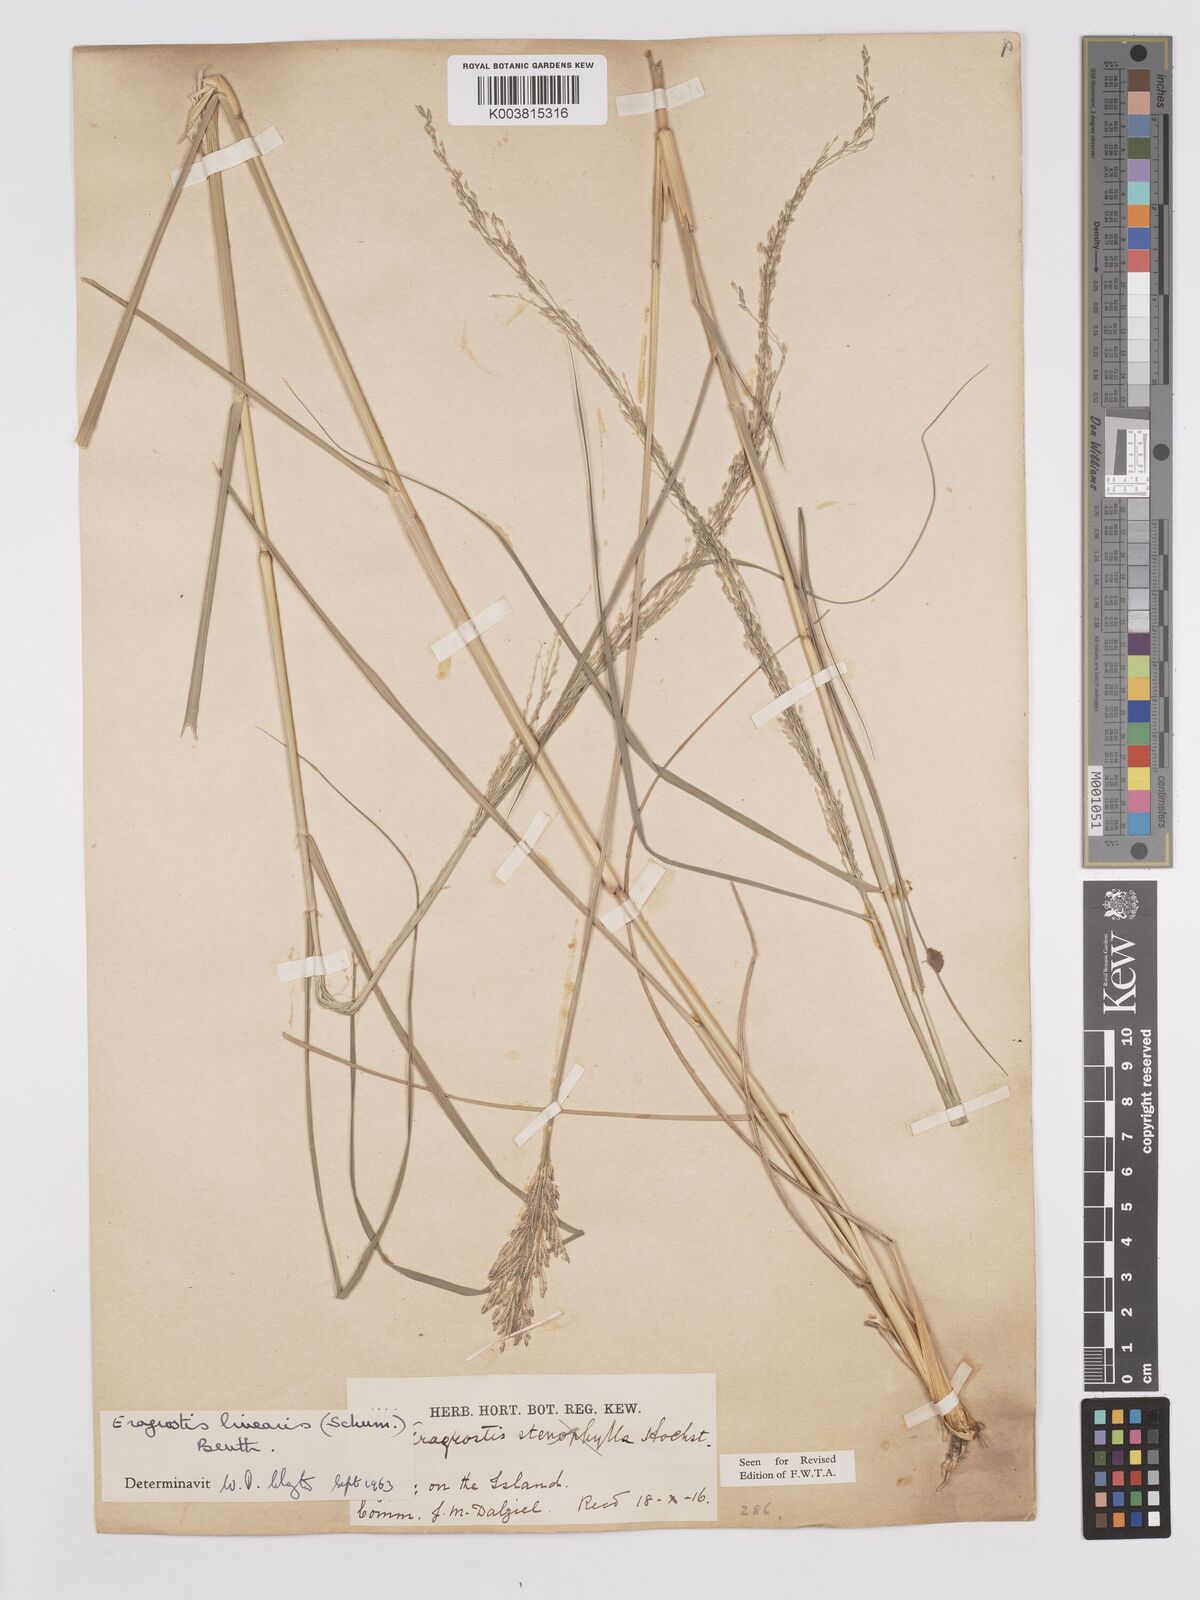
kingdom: Plantae
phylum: Tracheophyta
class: Liliopsida
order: Poales
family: Poaceae
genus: Eragrostis
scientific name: Eragrostis prolifera
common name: Dominican lovegrass
